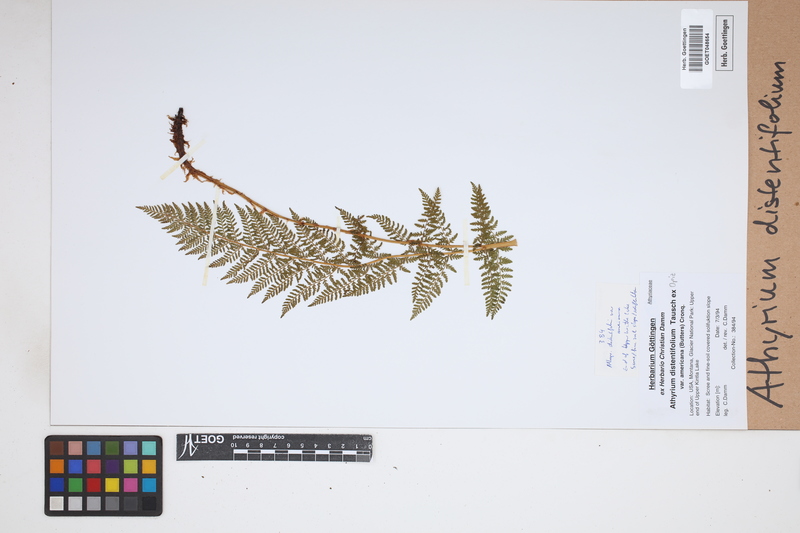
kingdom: Plantae
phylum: Tracheophyta
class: Polypodiopsida
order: Polypodiales
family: Athyriaceae
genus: Pseudathyrium
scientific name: Pseudathyrium alpestre
